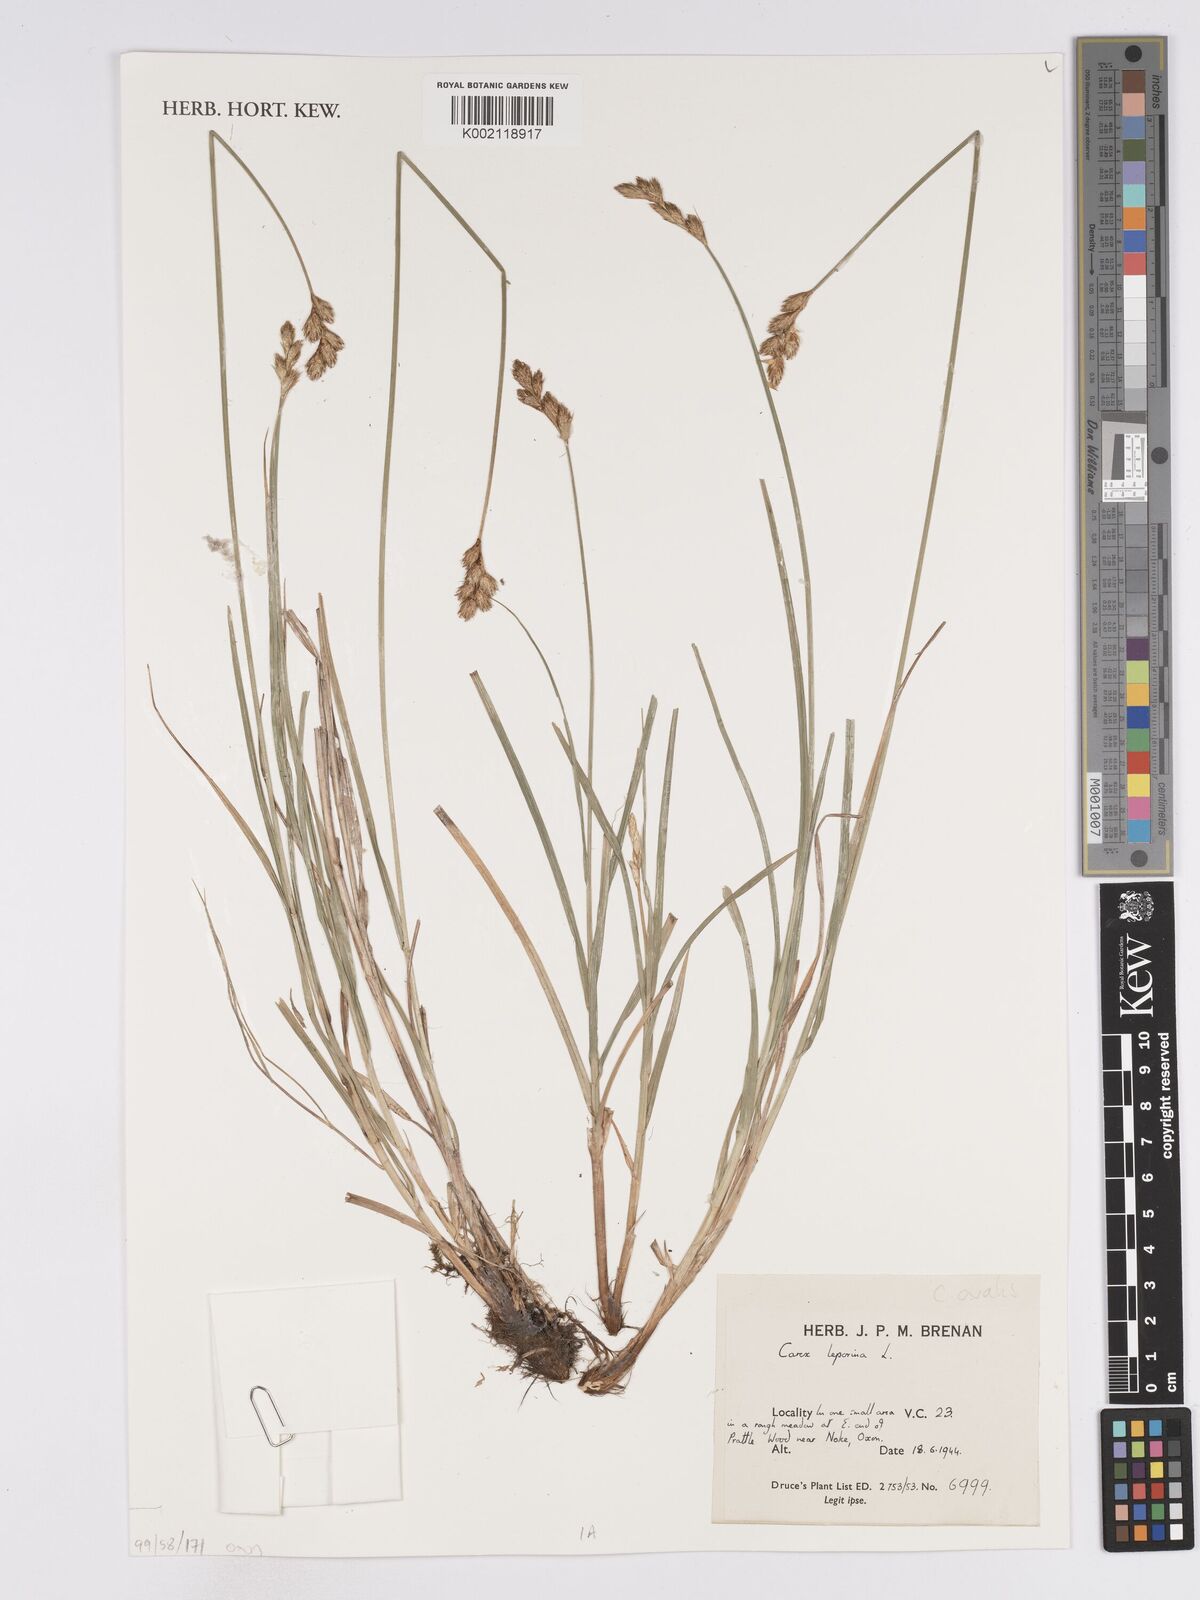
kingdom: Plantae
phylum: Tracheophyta
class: Liliopsida
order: Poales
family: Cyperaceae
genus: Carex
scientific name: Carex leporina
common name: Oval sedge
